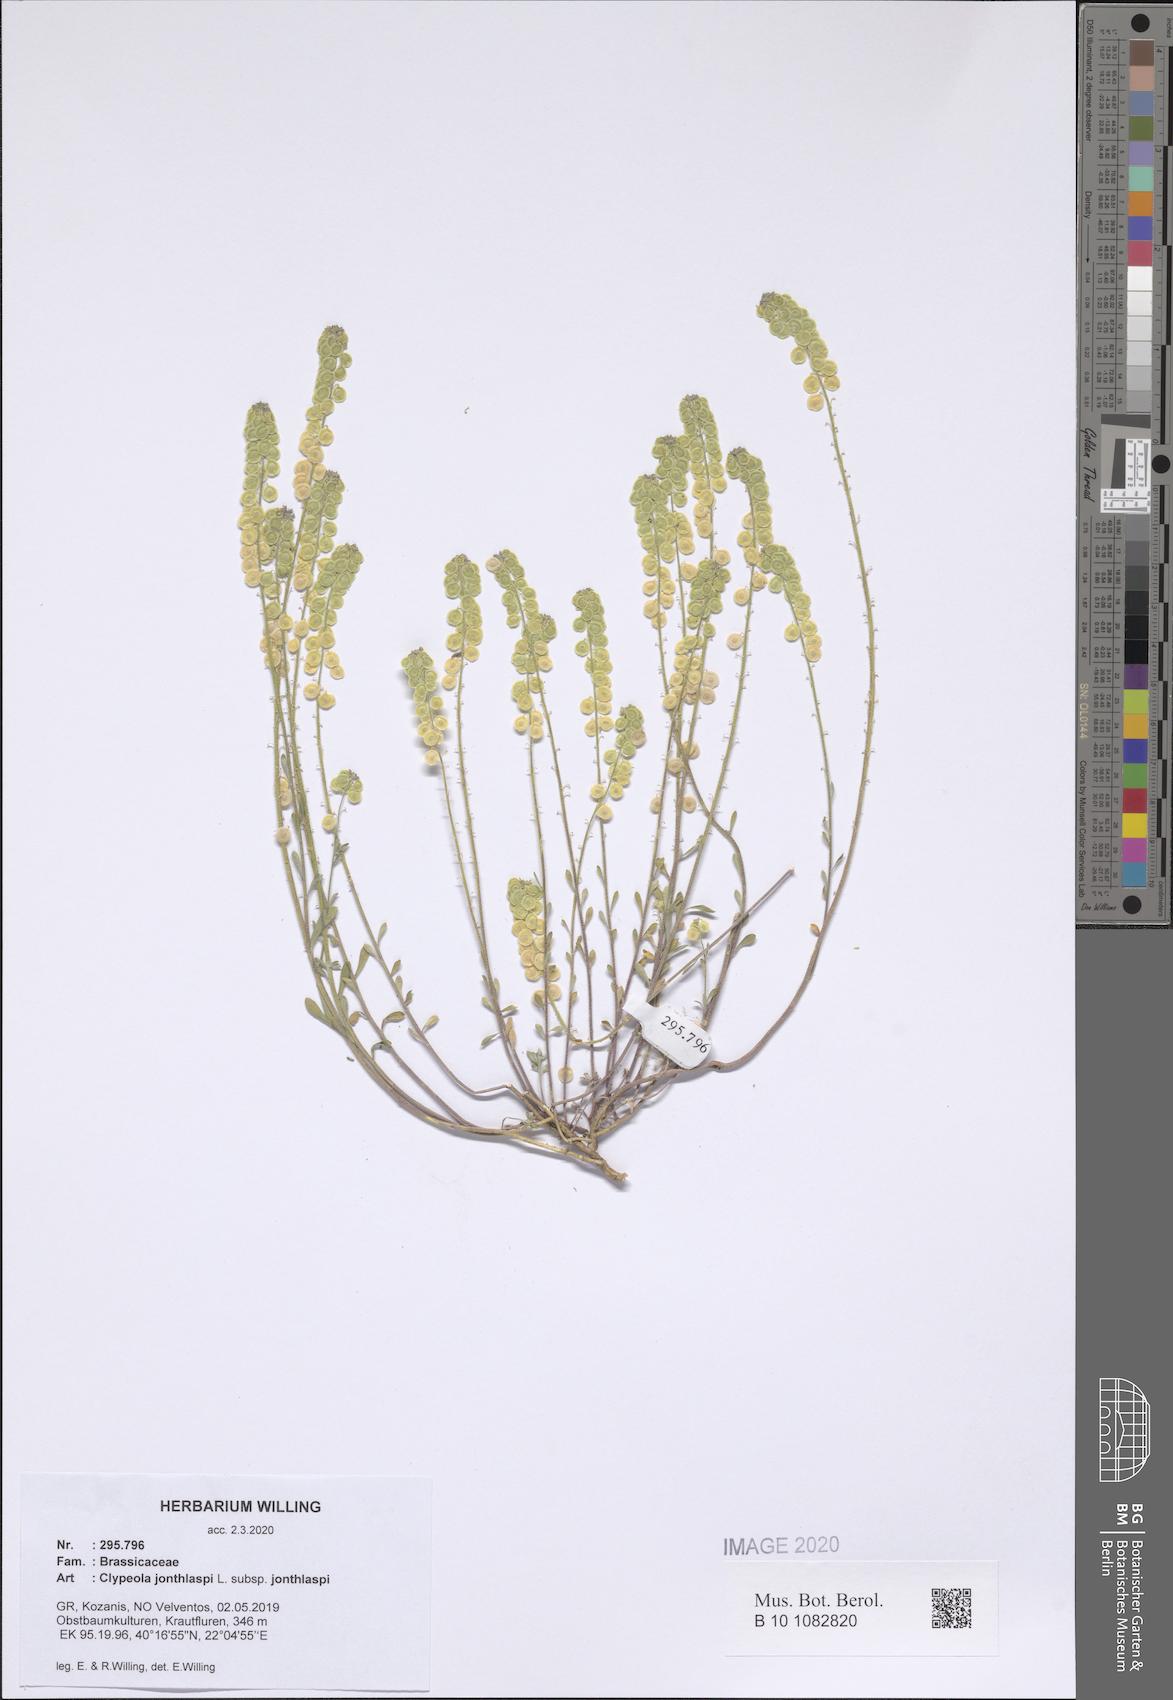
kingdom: Plantae
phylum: Tracheophyta
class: Magnoliopsida
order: Brassicales
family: Brassicaceae
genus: Clypeola
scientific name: Clypeola jonthlaspi
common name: Disk cress
